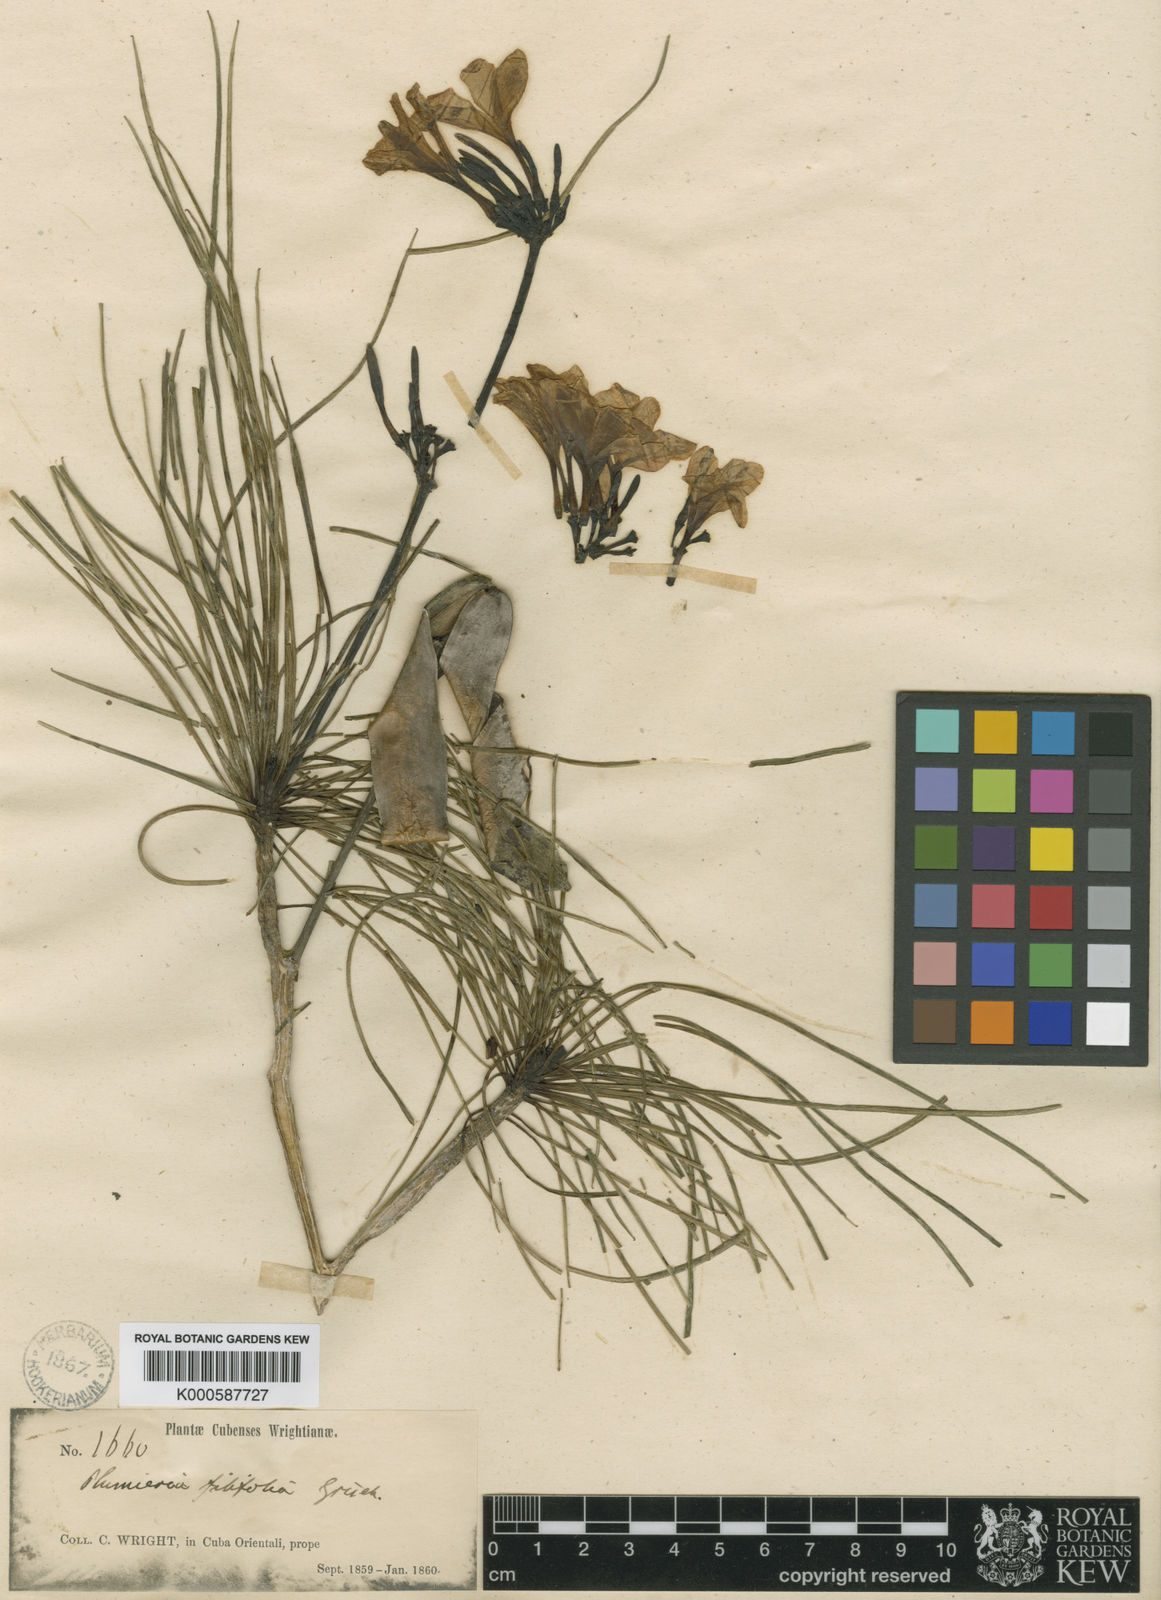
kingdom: Plantae
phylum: Tracheophyta
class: Magnoliopsida
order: Gentianales
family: Apocynaceae
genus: Plumeria
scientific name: Plumeria filifolia
